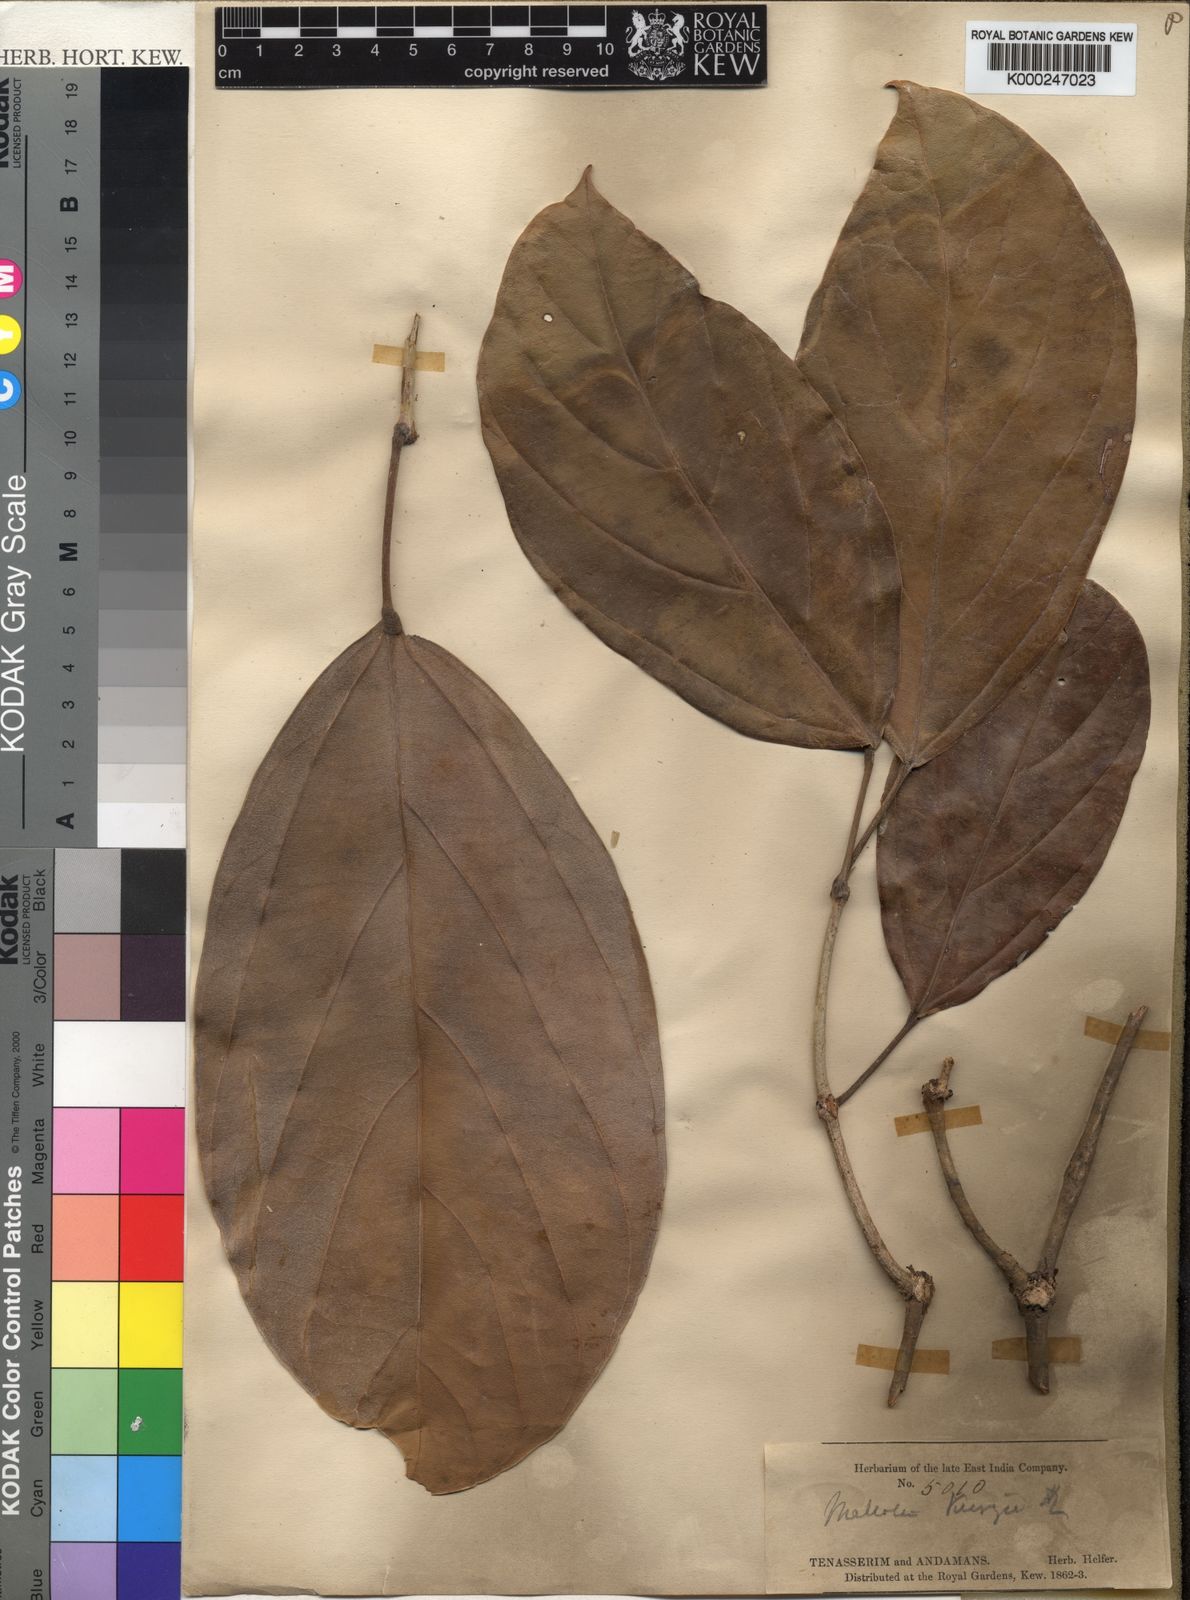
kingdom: Plantae
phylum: Tracheophyta
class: Magnoliopsida
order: Malpighiales
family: Euphorbiaceae
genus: Blumeodendron
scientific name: Blumeodendron kurzii
